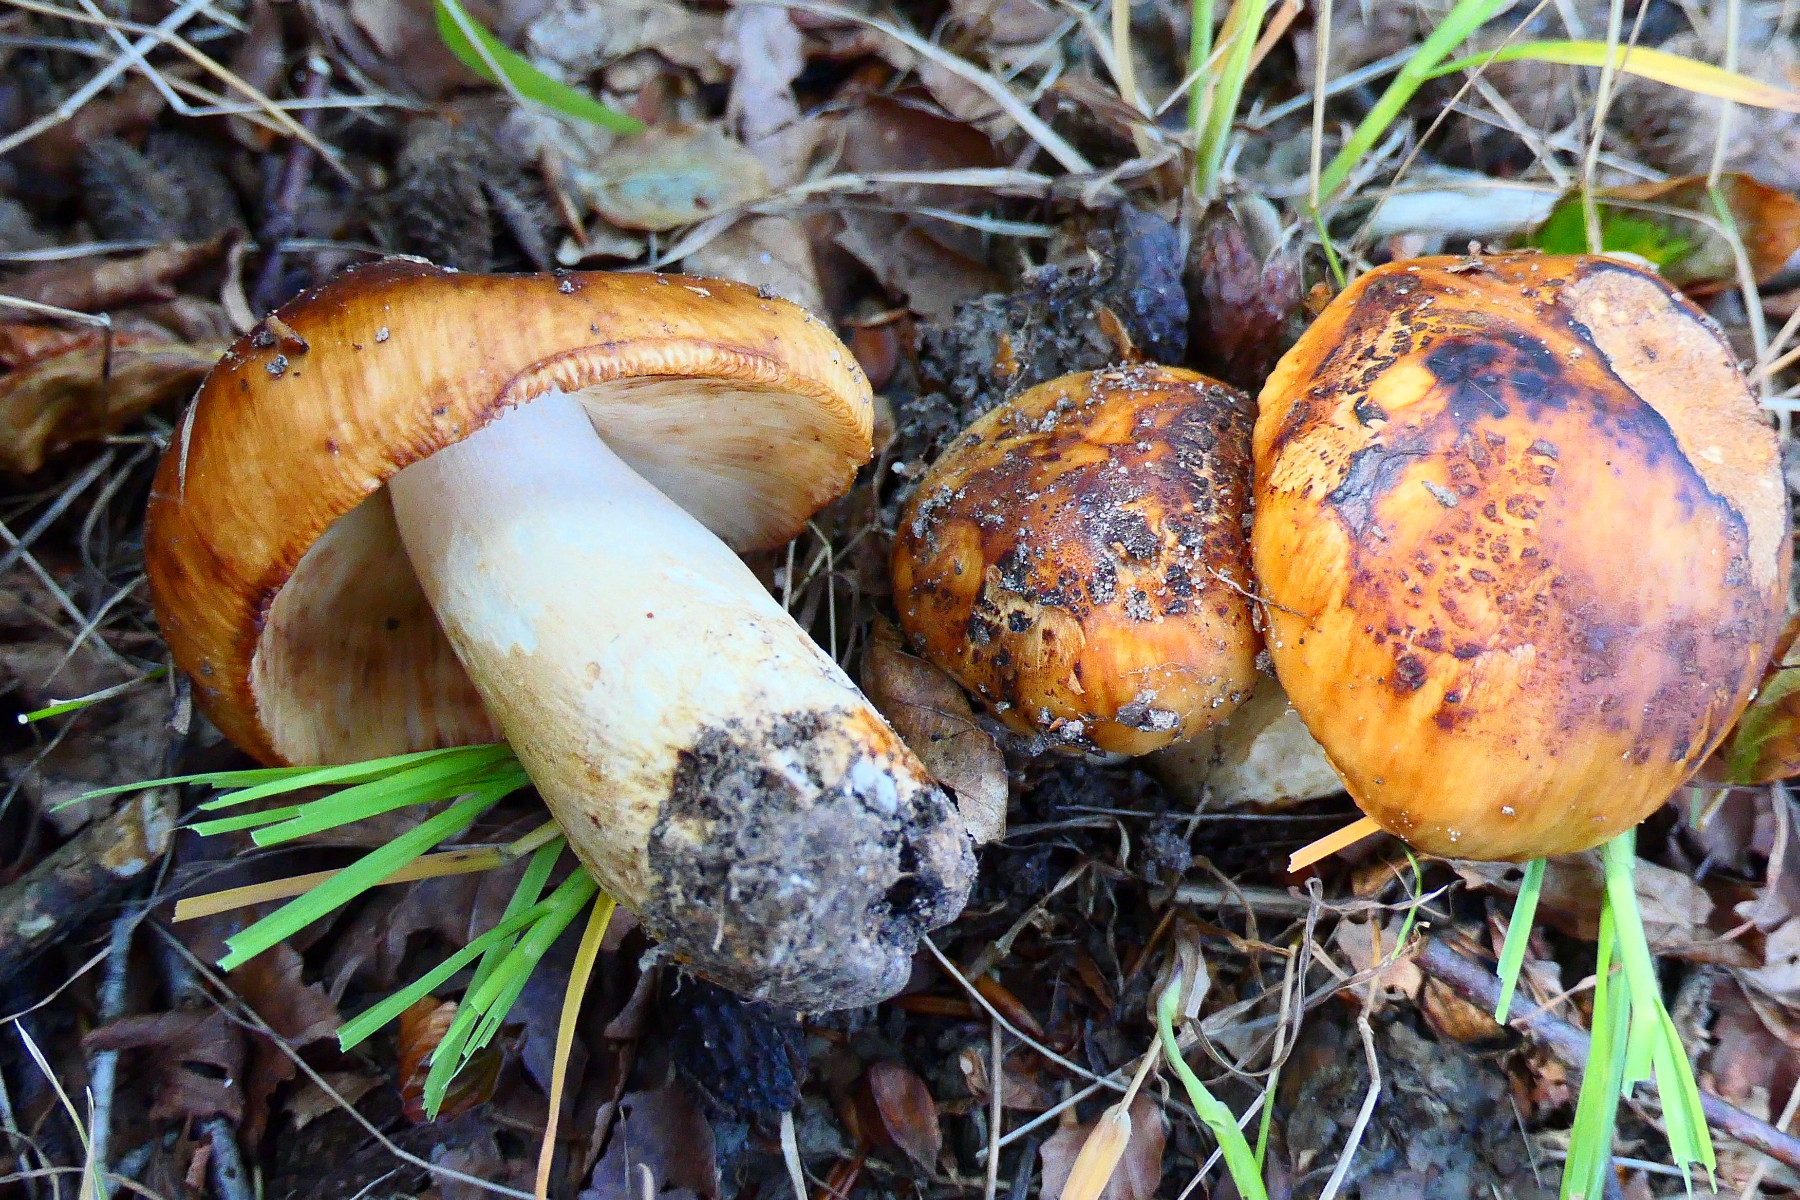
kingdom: Fungi
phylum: Basidiomycota
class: Agaricomycetes
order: Russulales
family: Russulaceae
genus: Russula
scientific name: Russula foetens
